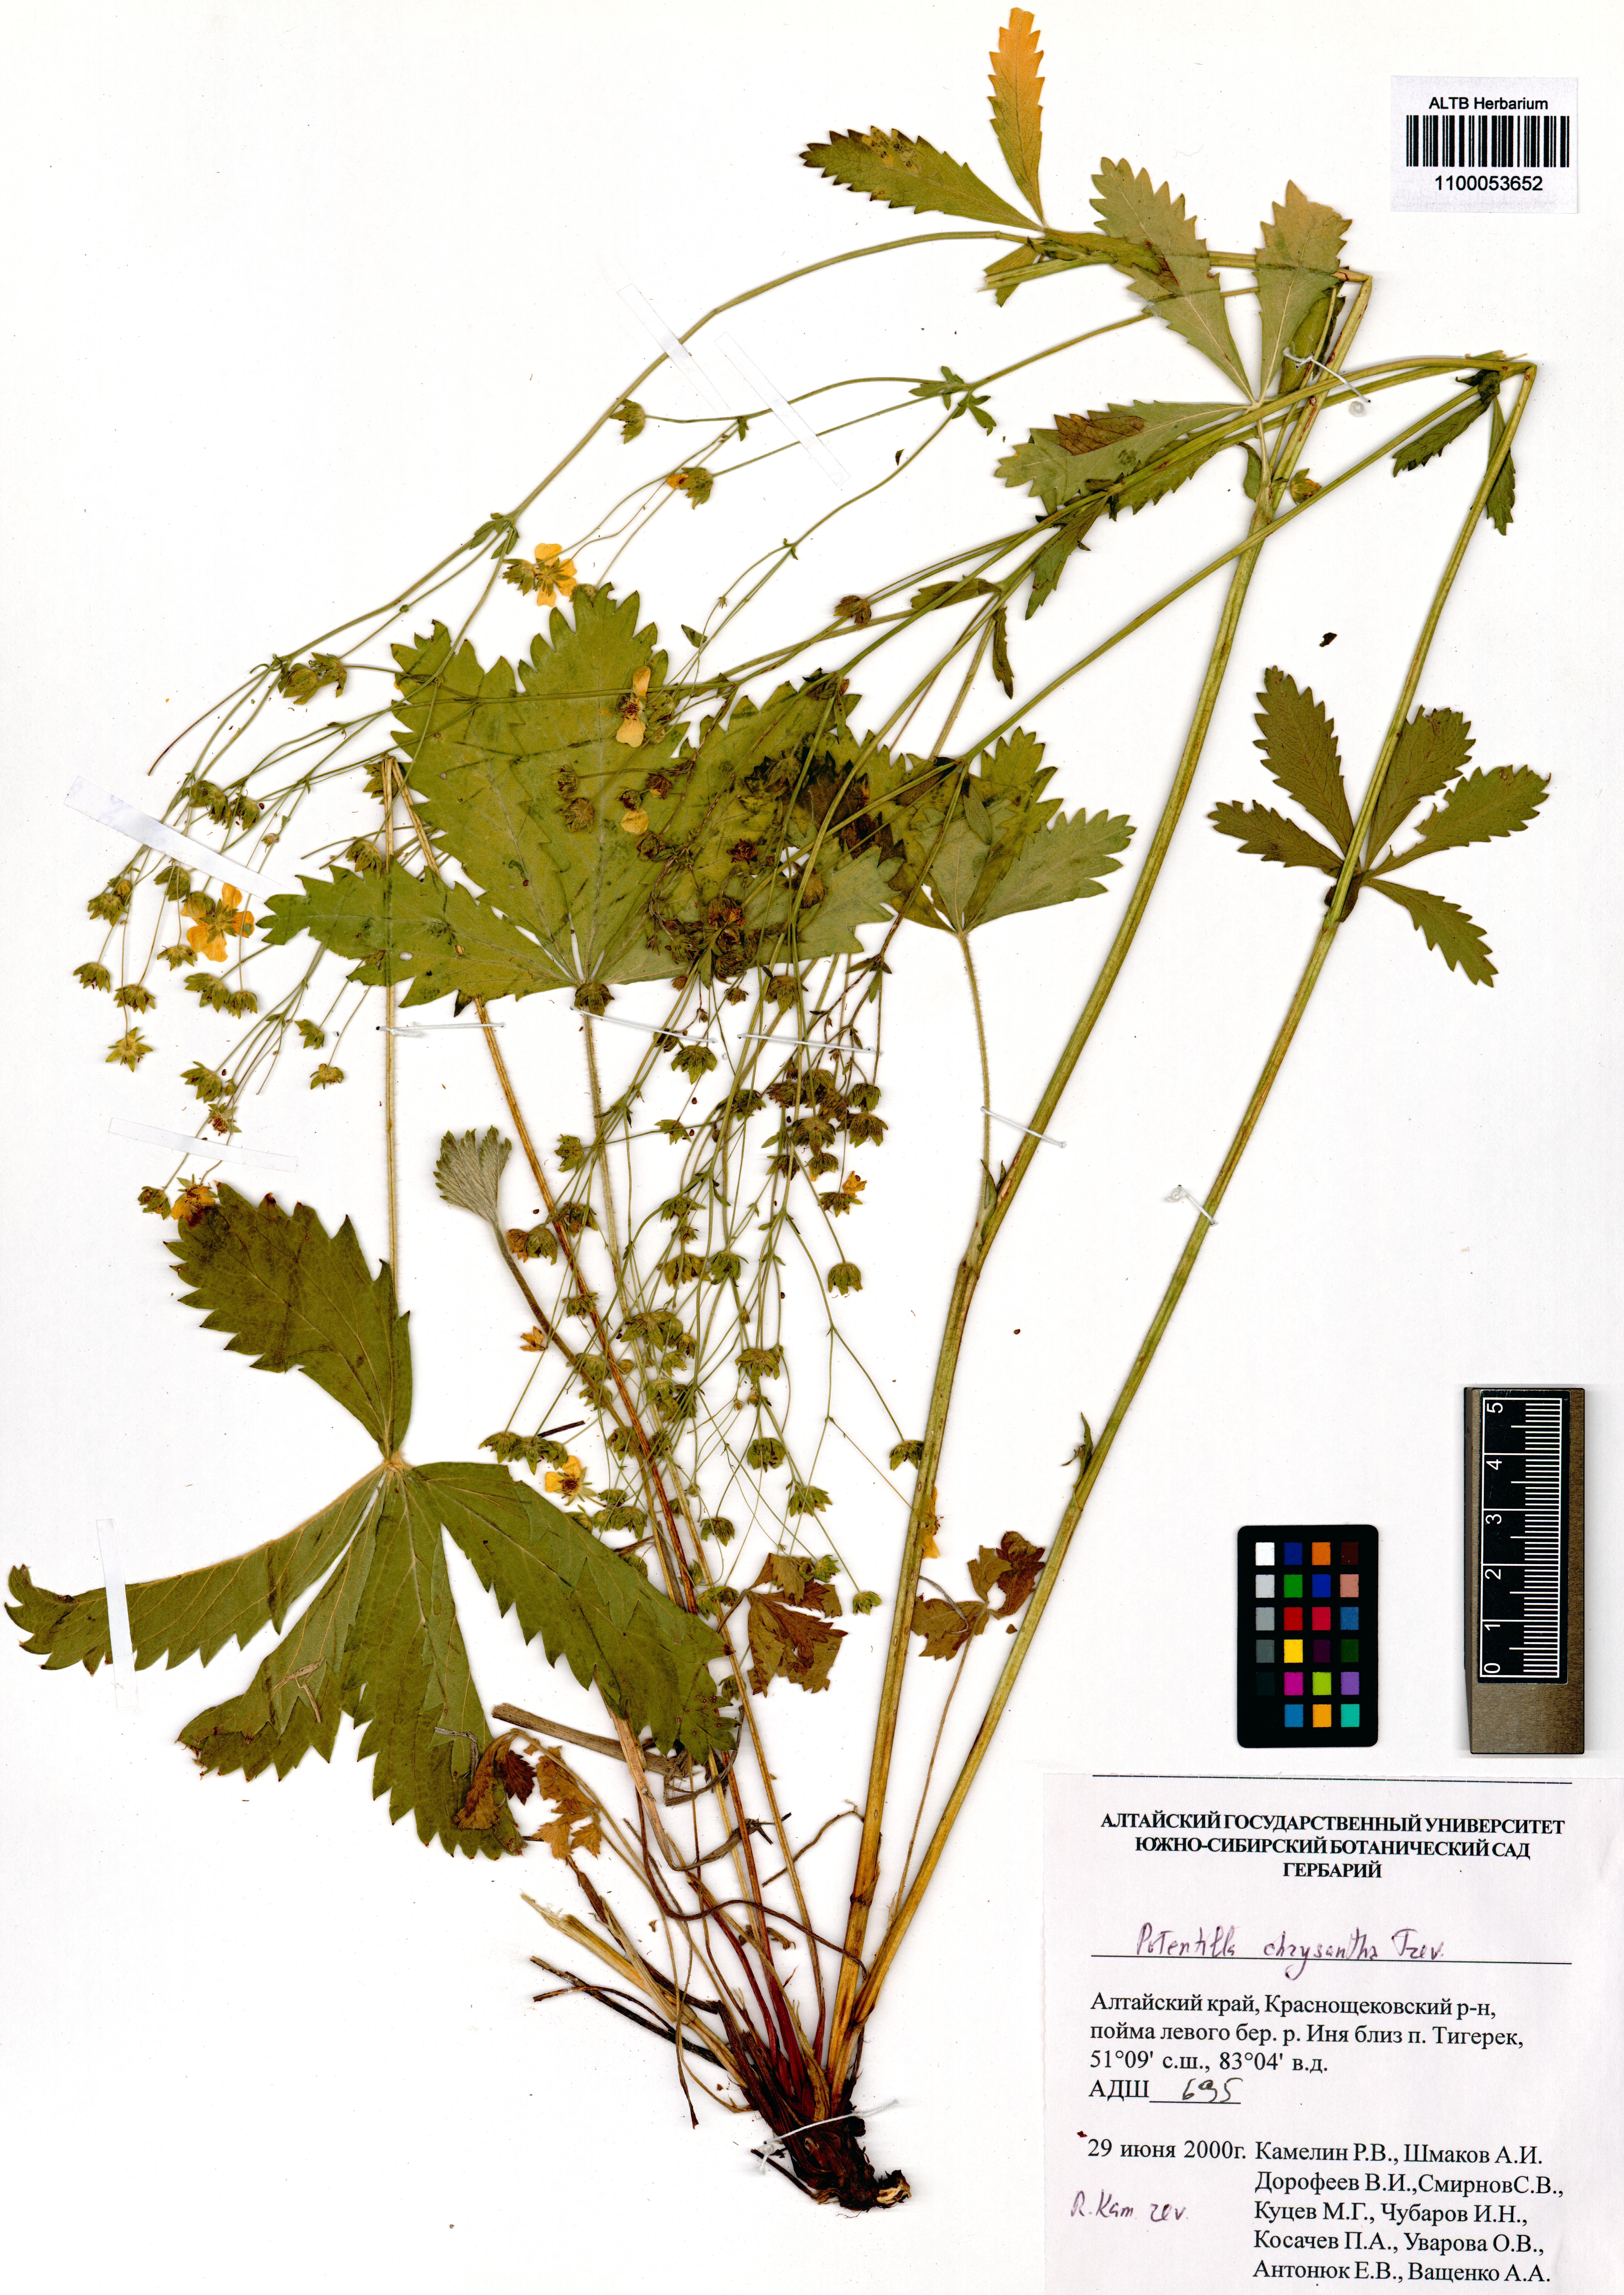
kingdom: Plantae
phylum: Tracheophyta
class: Magnoliopsida
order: Rosales
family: Rosaceae
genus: Potentilla
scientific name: Potentilla chrysantha
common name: Thuringian cinquefoil
